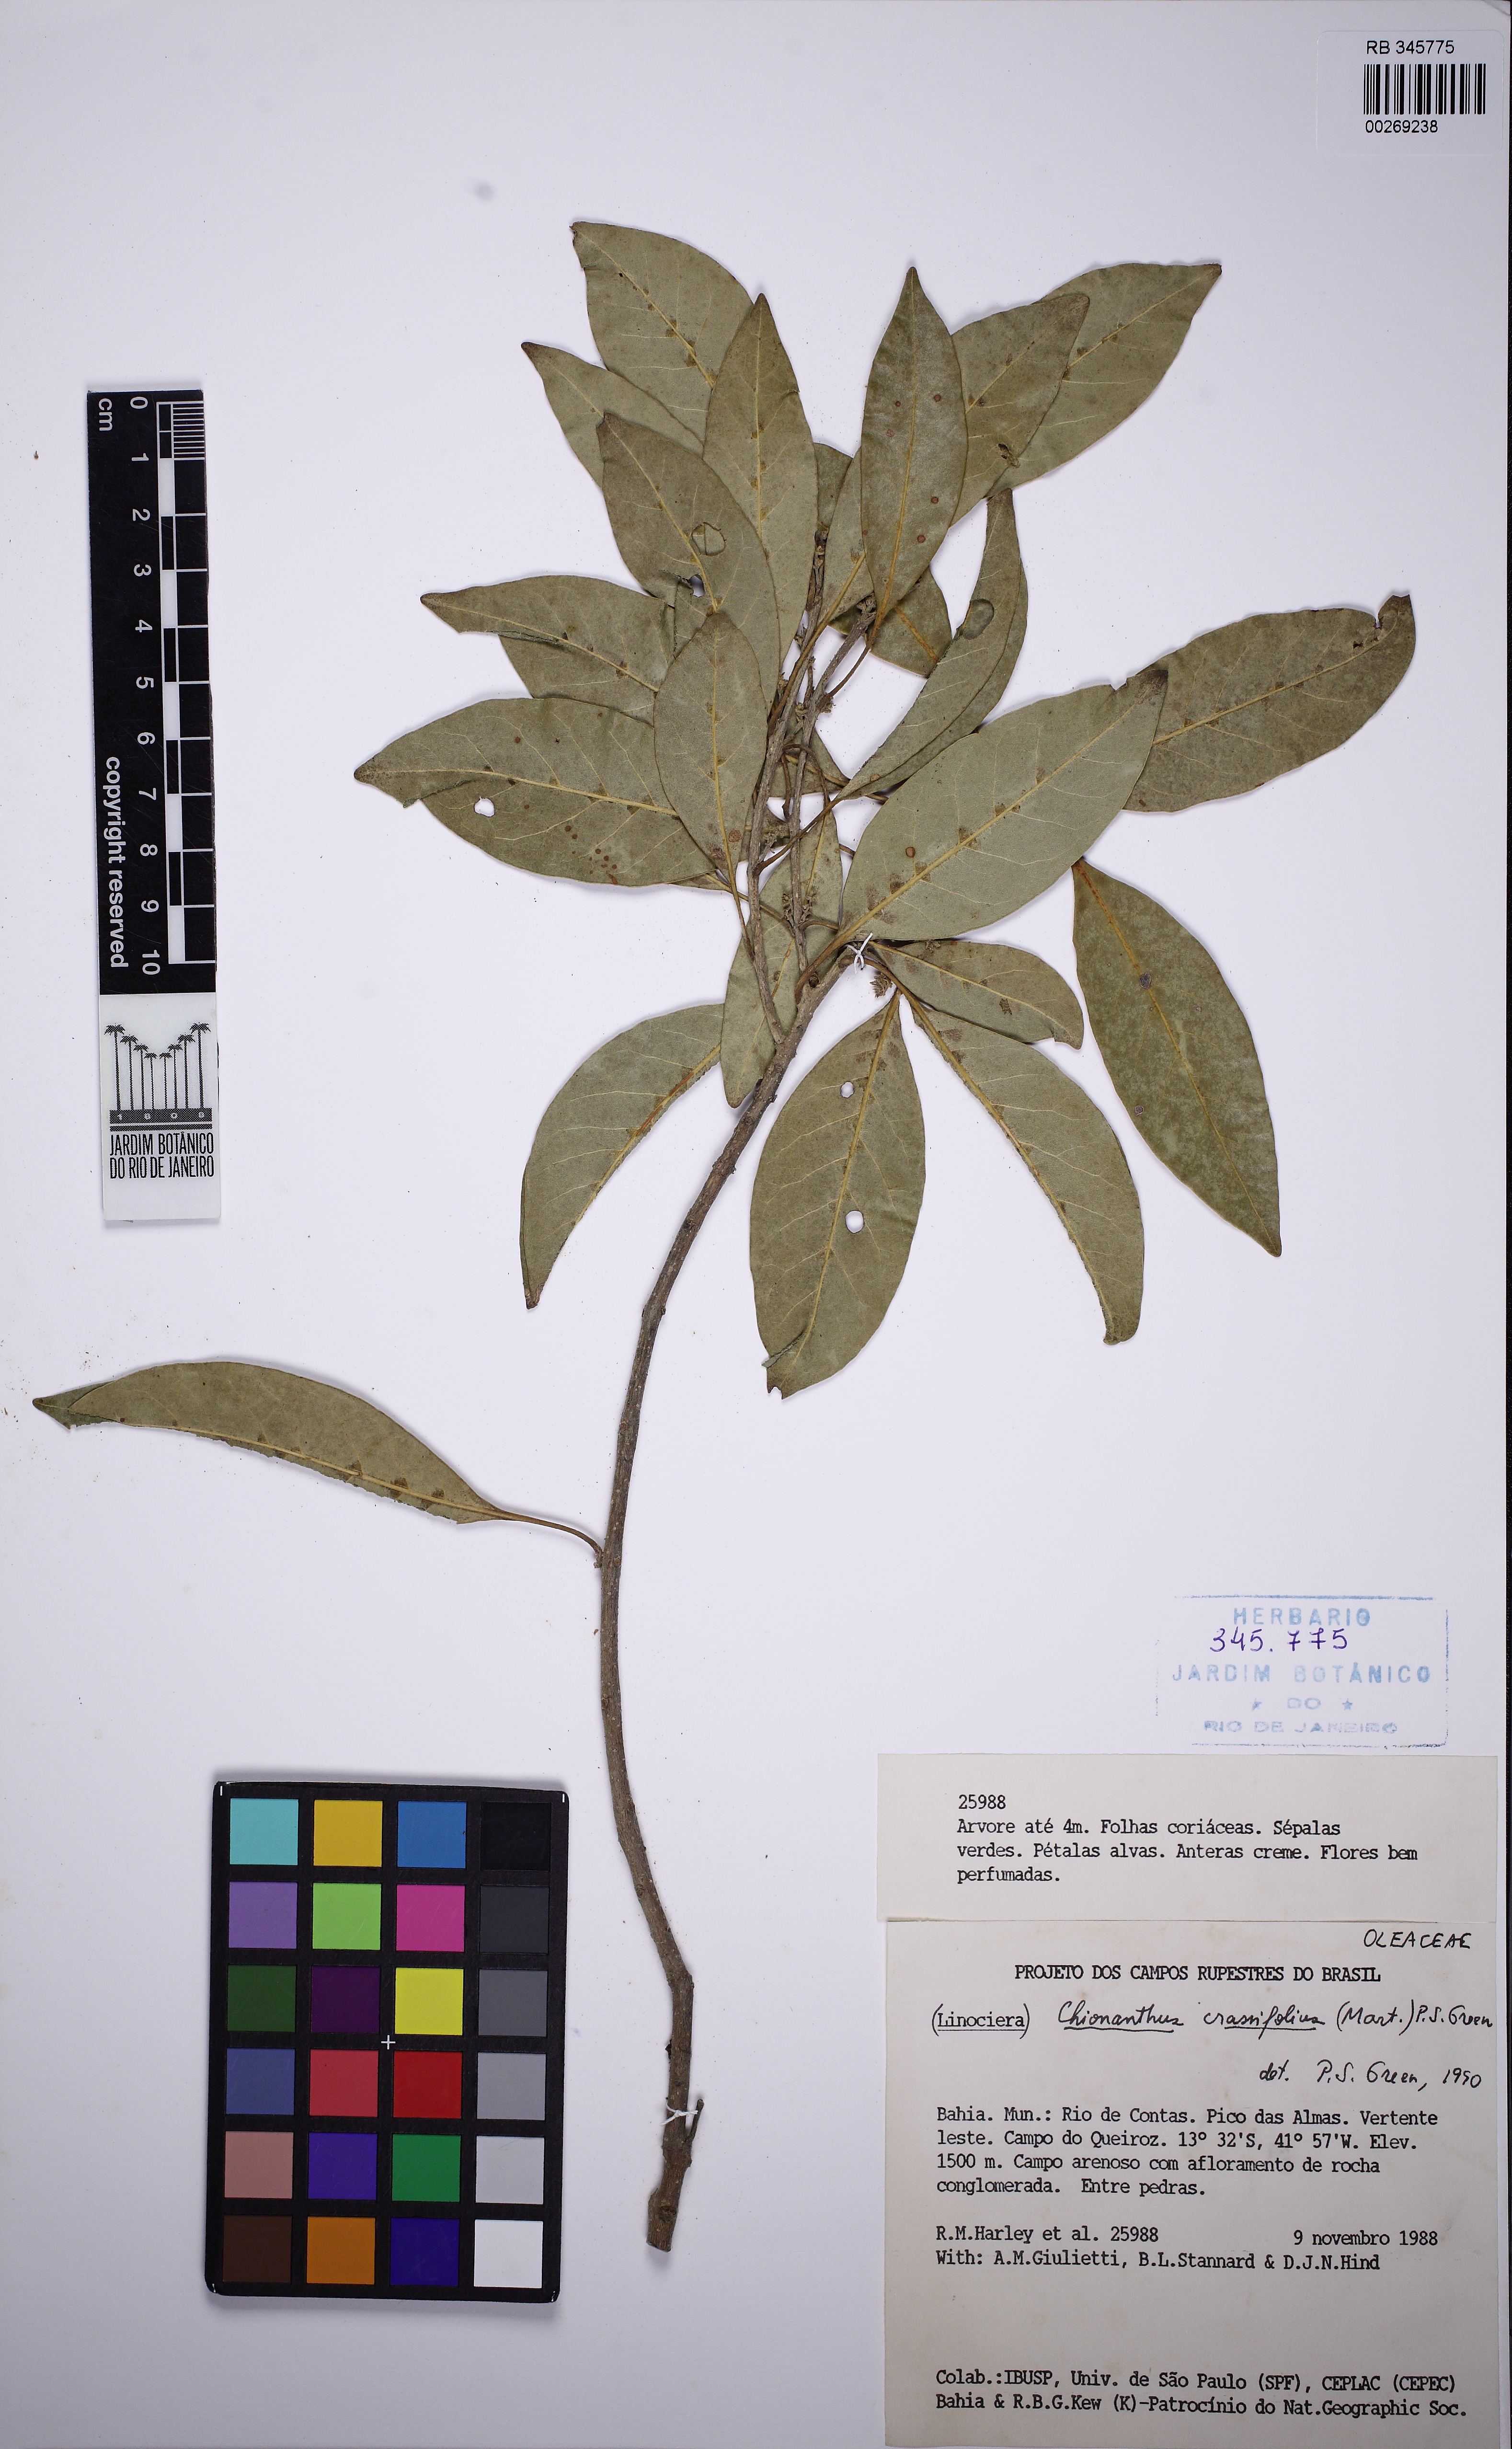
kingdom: Plantae
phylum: Tracheophyta
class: Magnoliopsida
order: Lamiales
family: Oleaceae
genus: Chionanthus
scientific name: Chionanthus crassifolius
